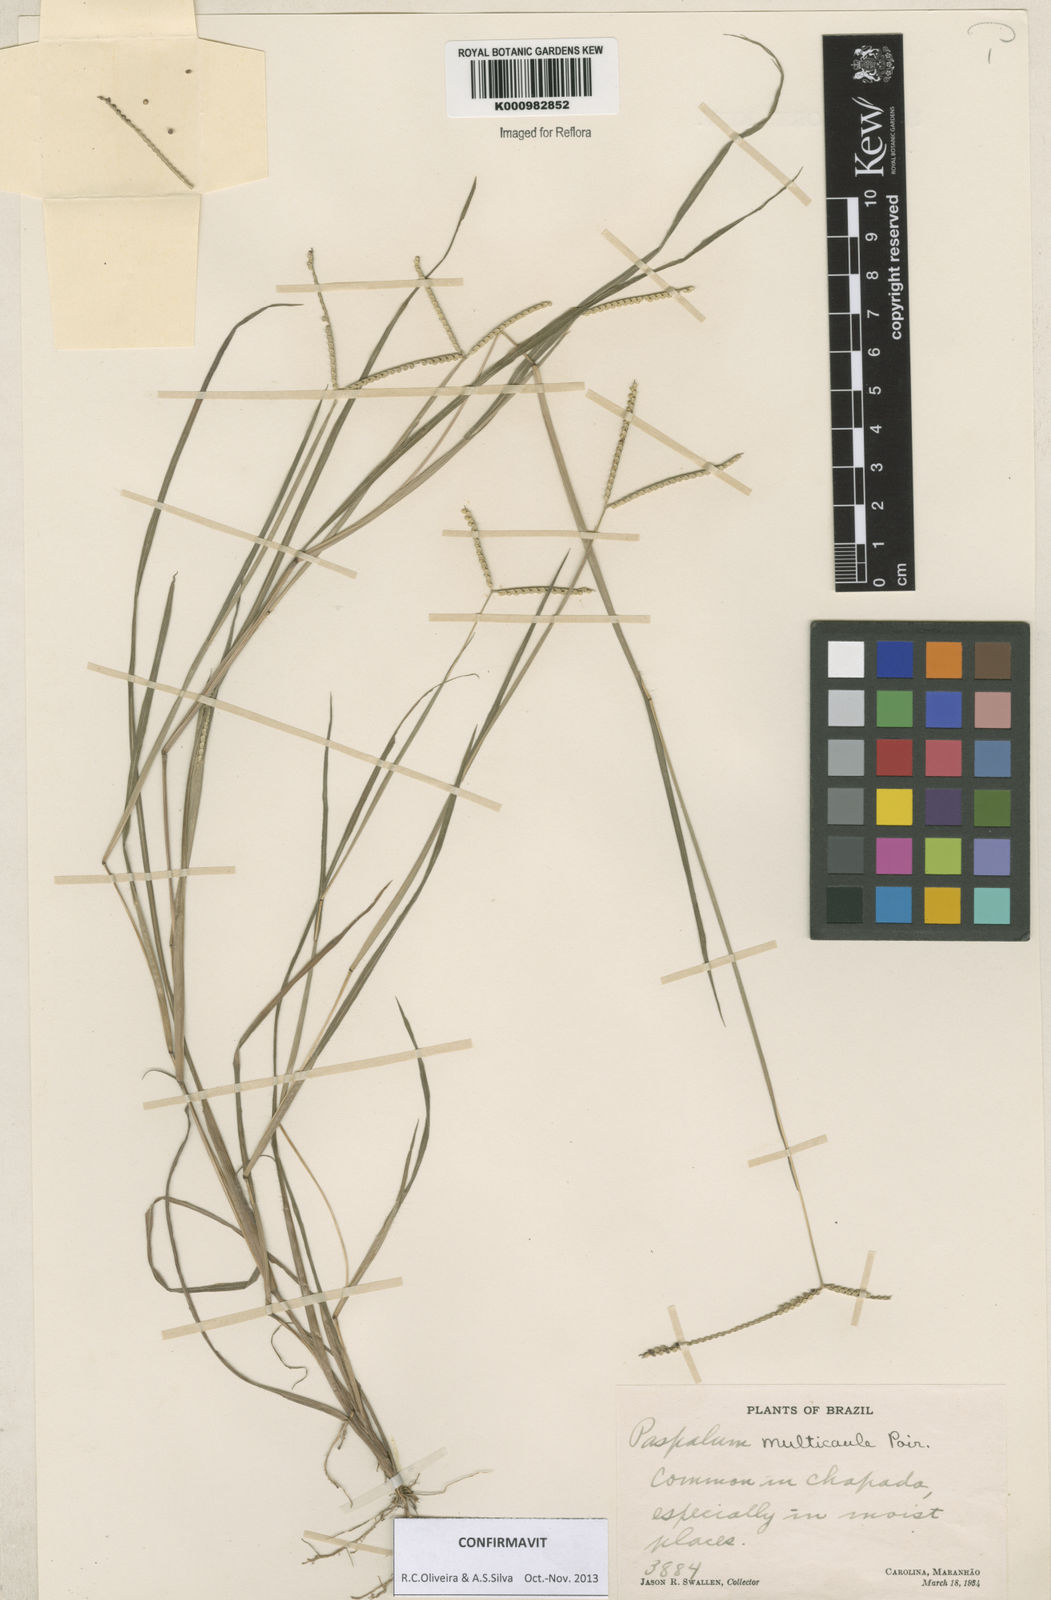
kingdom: Plantae
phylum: Tracheophyta
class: Liliopsida
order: Poales
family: Poaceae
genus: Paspalum
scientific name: Paspalum multicaule
